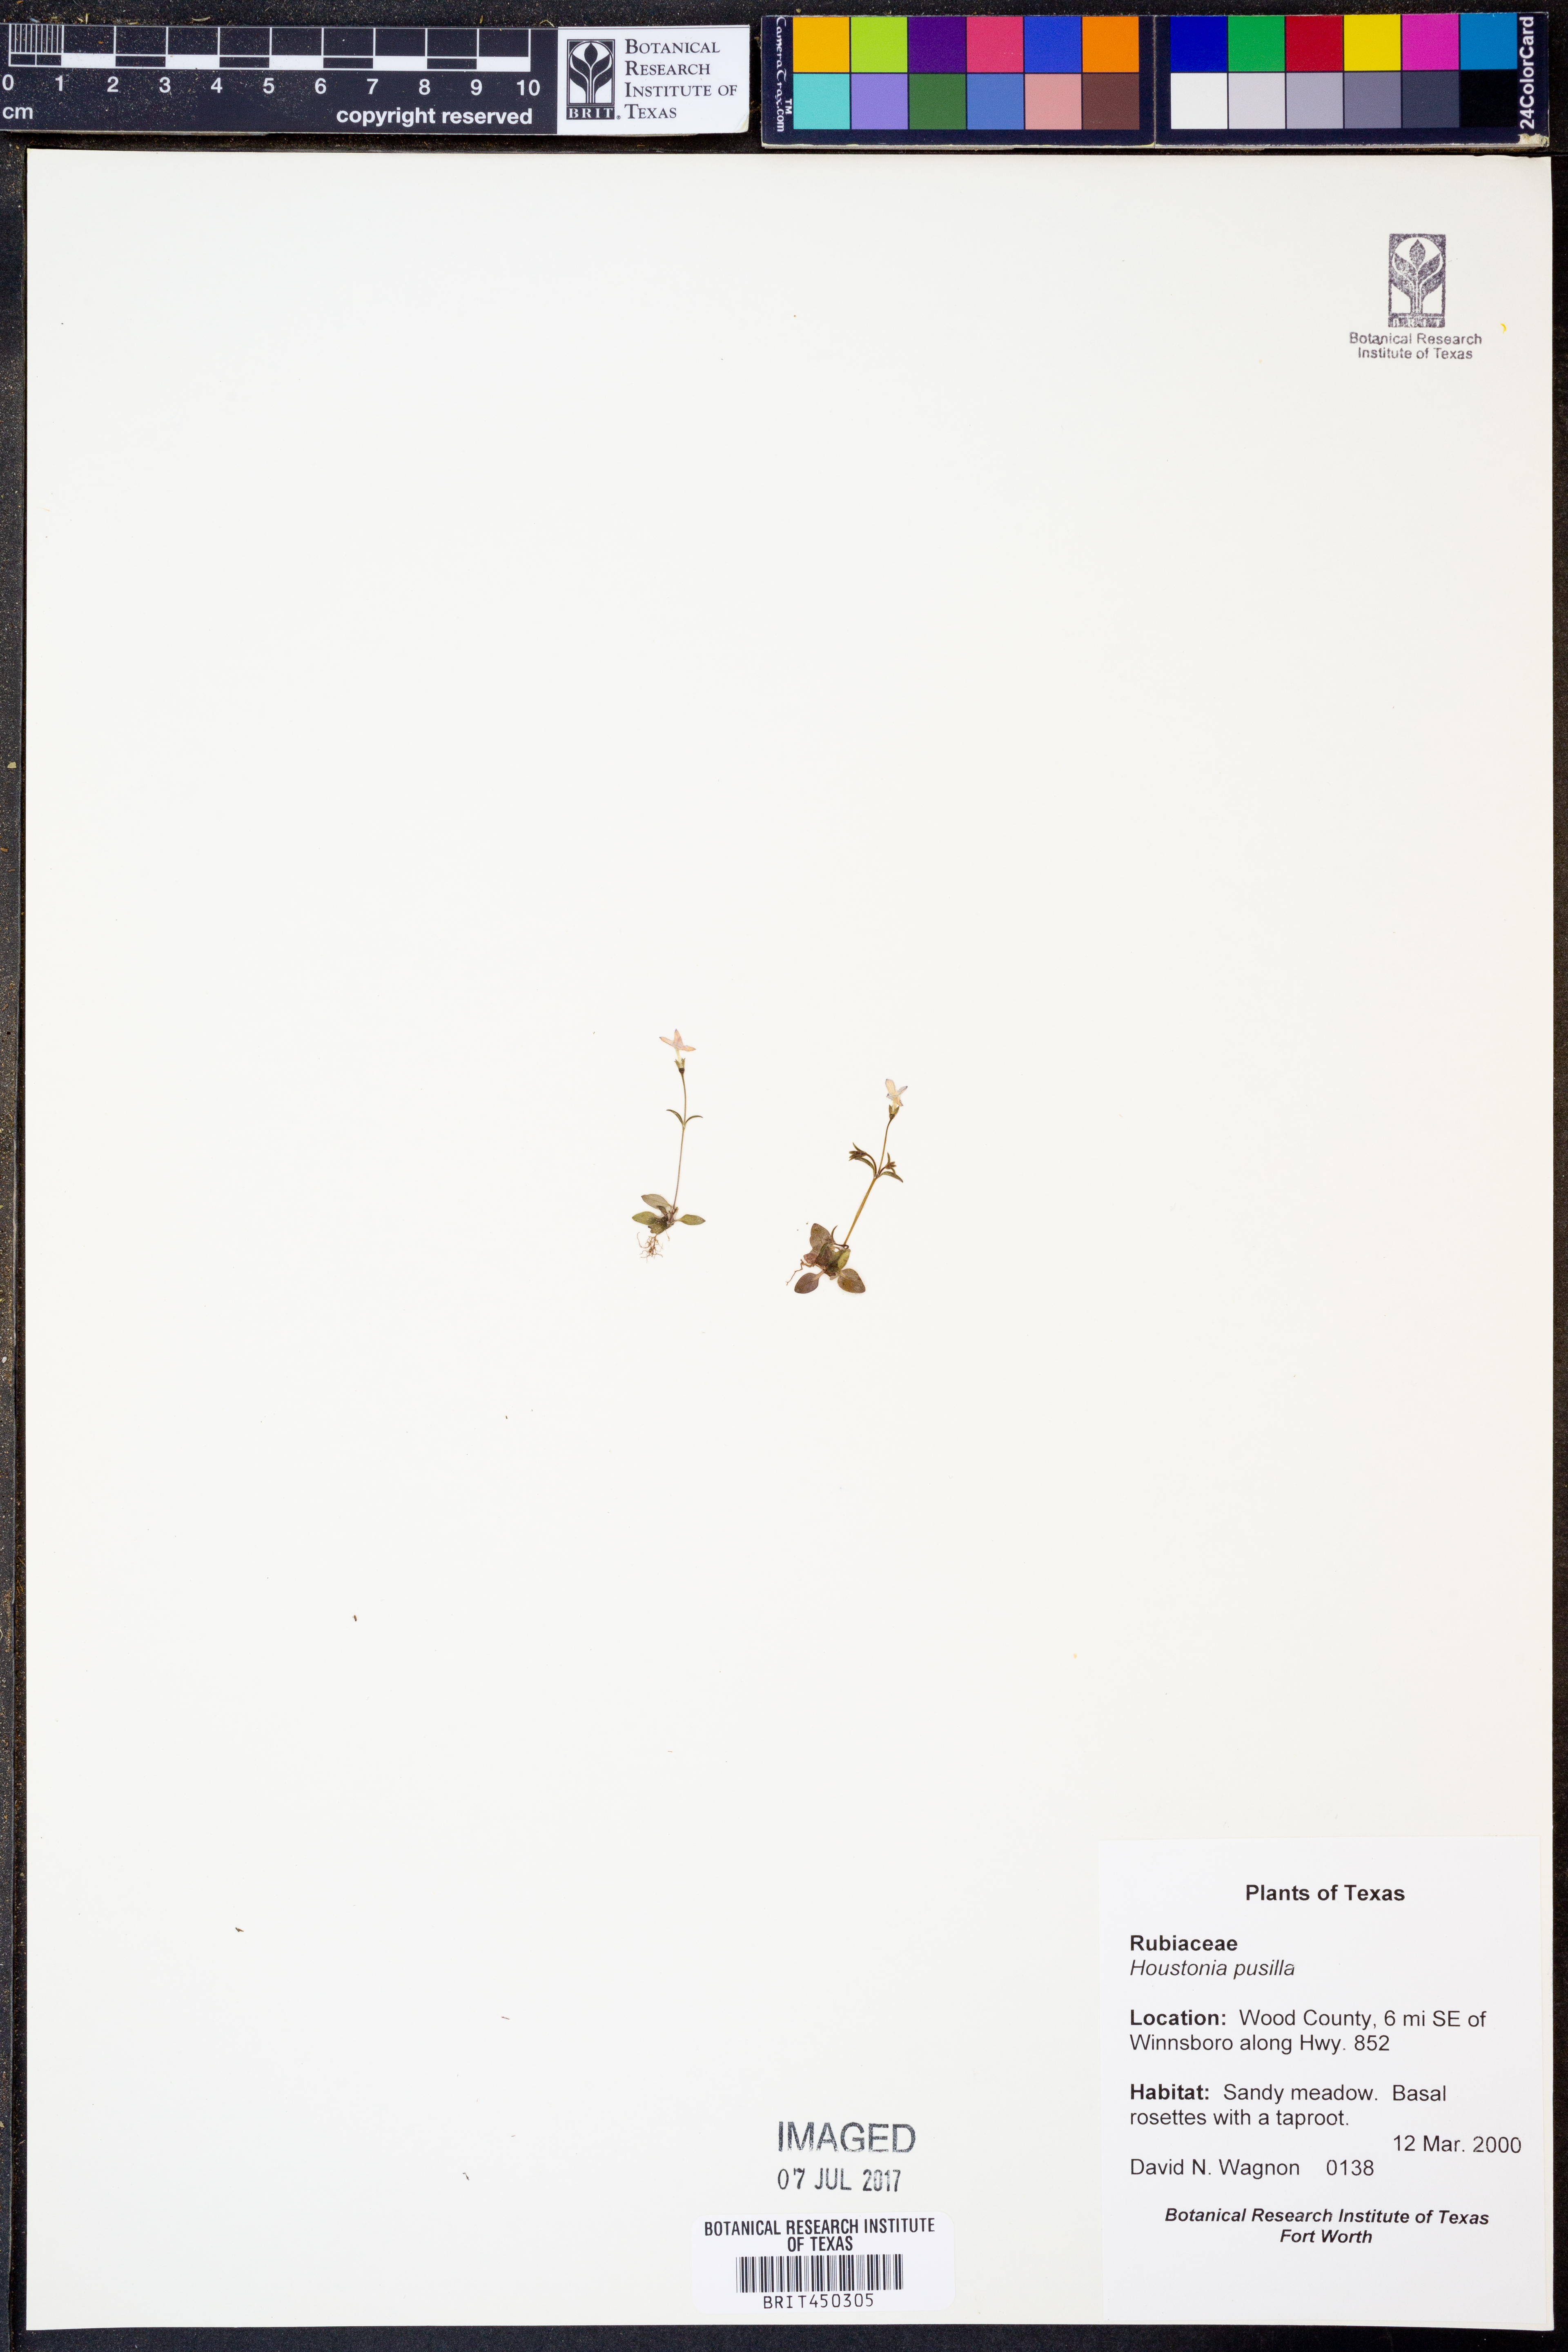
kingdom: Plantae
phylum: Tracheophyta
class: Magnoliopsida
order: Gentianales
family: Rubiaceae
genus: Houstonia
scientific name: Houstonia pusilla
